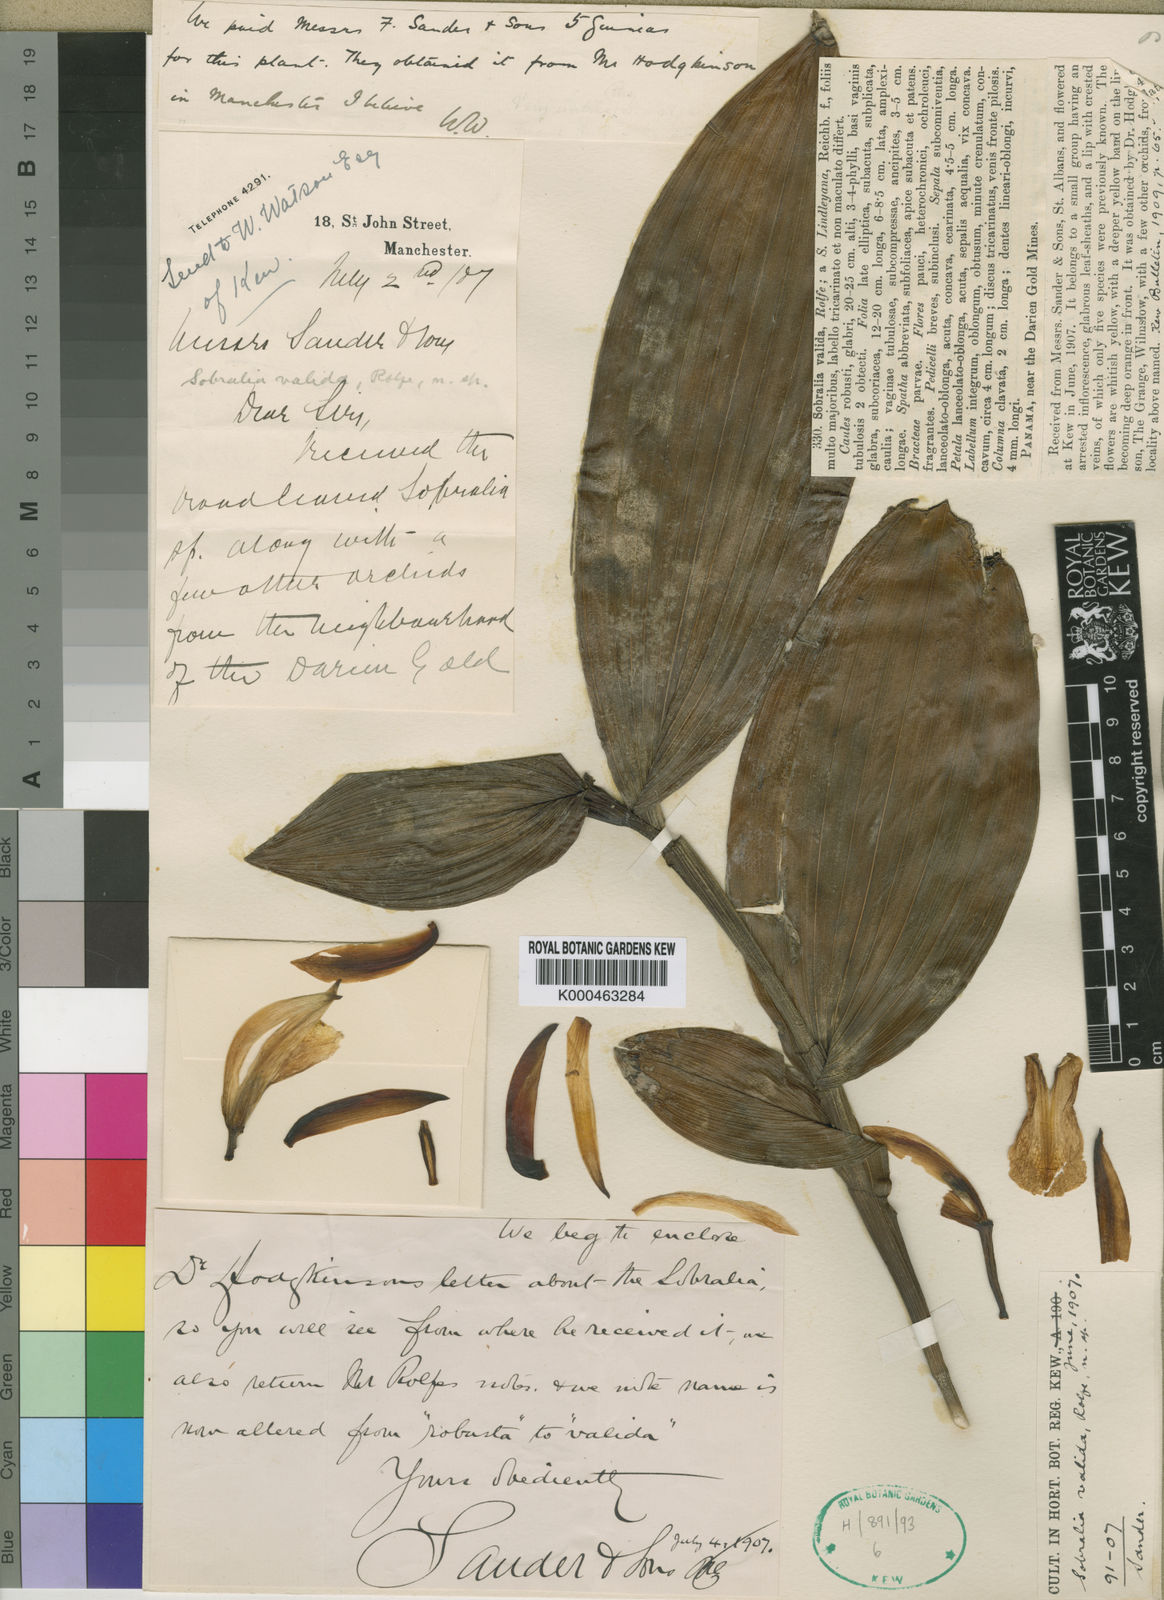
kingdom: Plantae
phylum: Tracheophyta
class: Liliopsida
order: Asparagales
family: Orchidaceae
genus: Sobralia
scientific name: Sobralia valida
